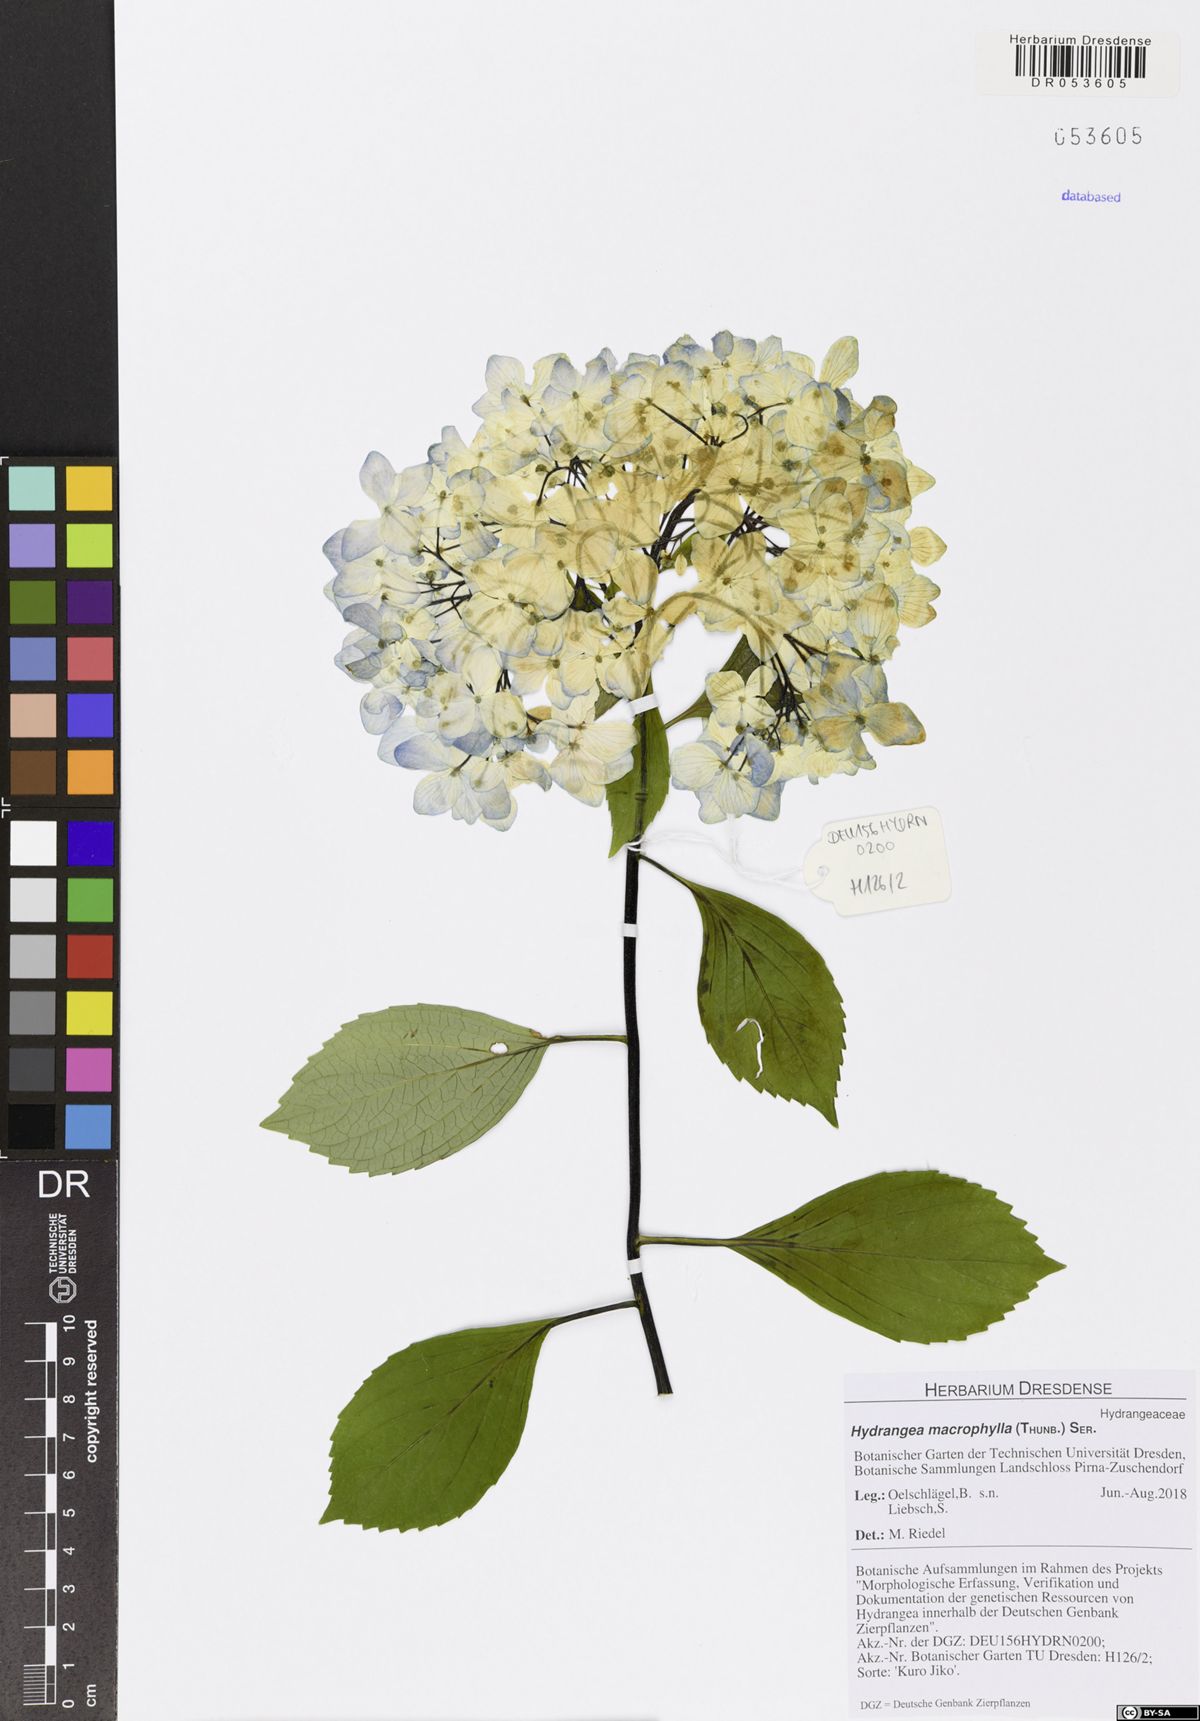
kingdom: Plantae
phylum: Tracheophyta
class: Magnoliopsida
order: Cornales
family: Hydrangeaceae
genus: Hydrangea
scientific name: Hydrangea macrophylla
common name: Hydrangea
